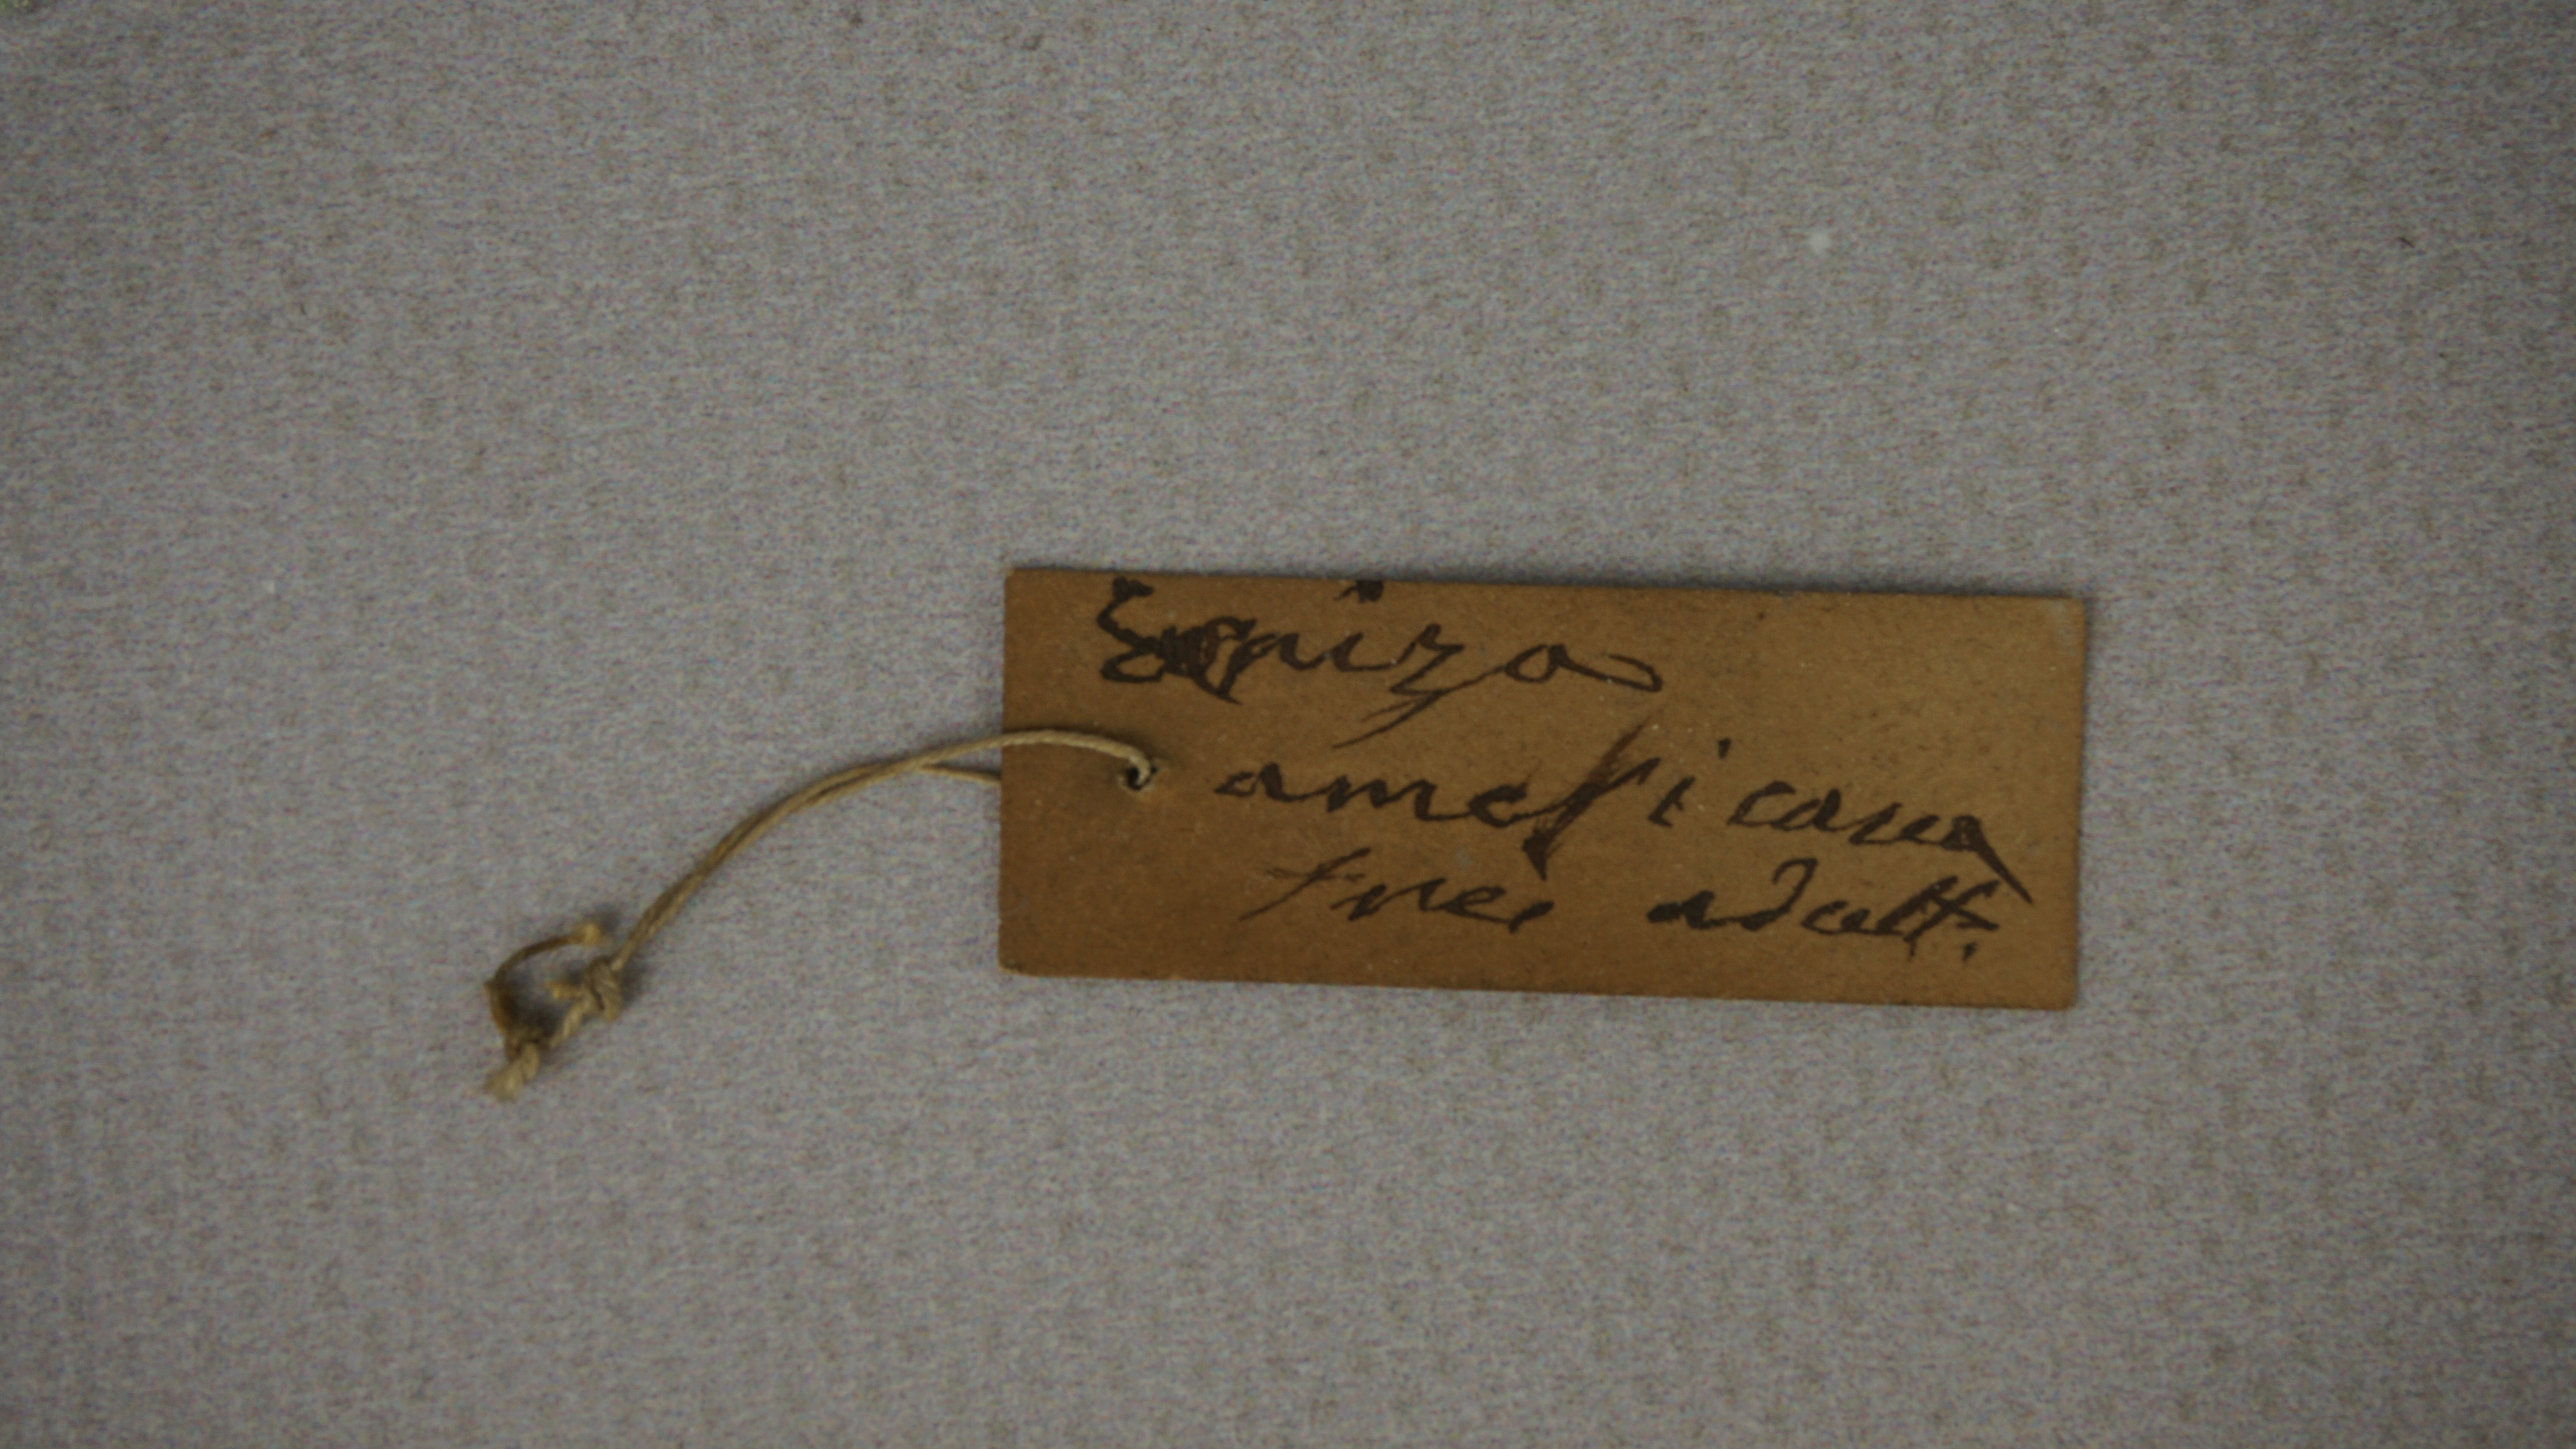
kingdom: Animalia
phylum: Chordata
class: Aves
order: Passeriformes
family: Cardinalidae
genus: Spiza
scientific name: Spiza americana
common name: Dickcissel
